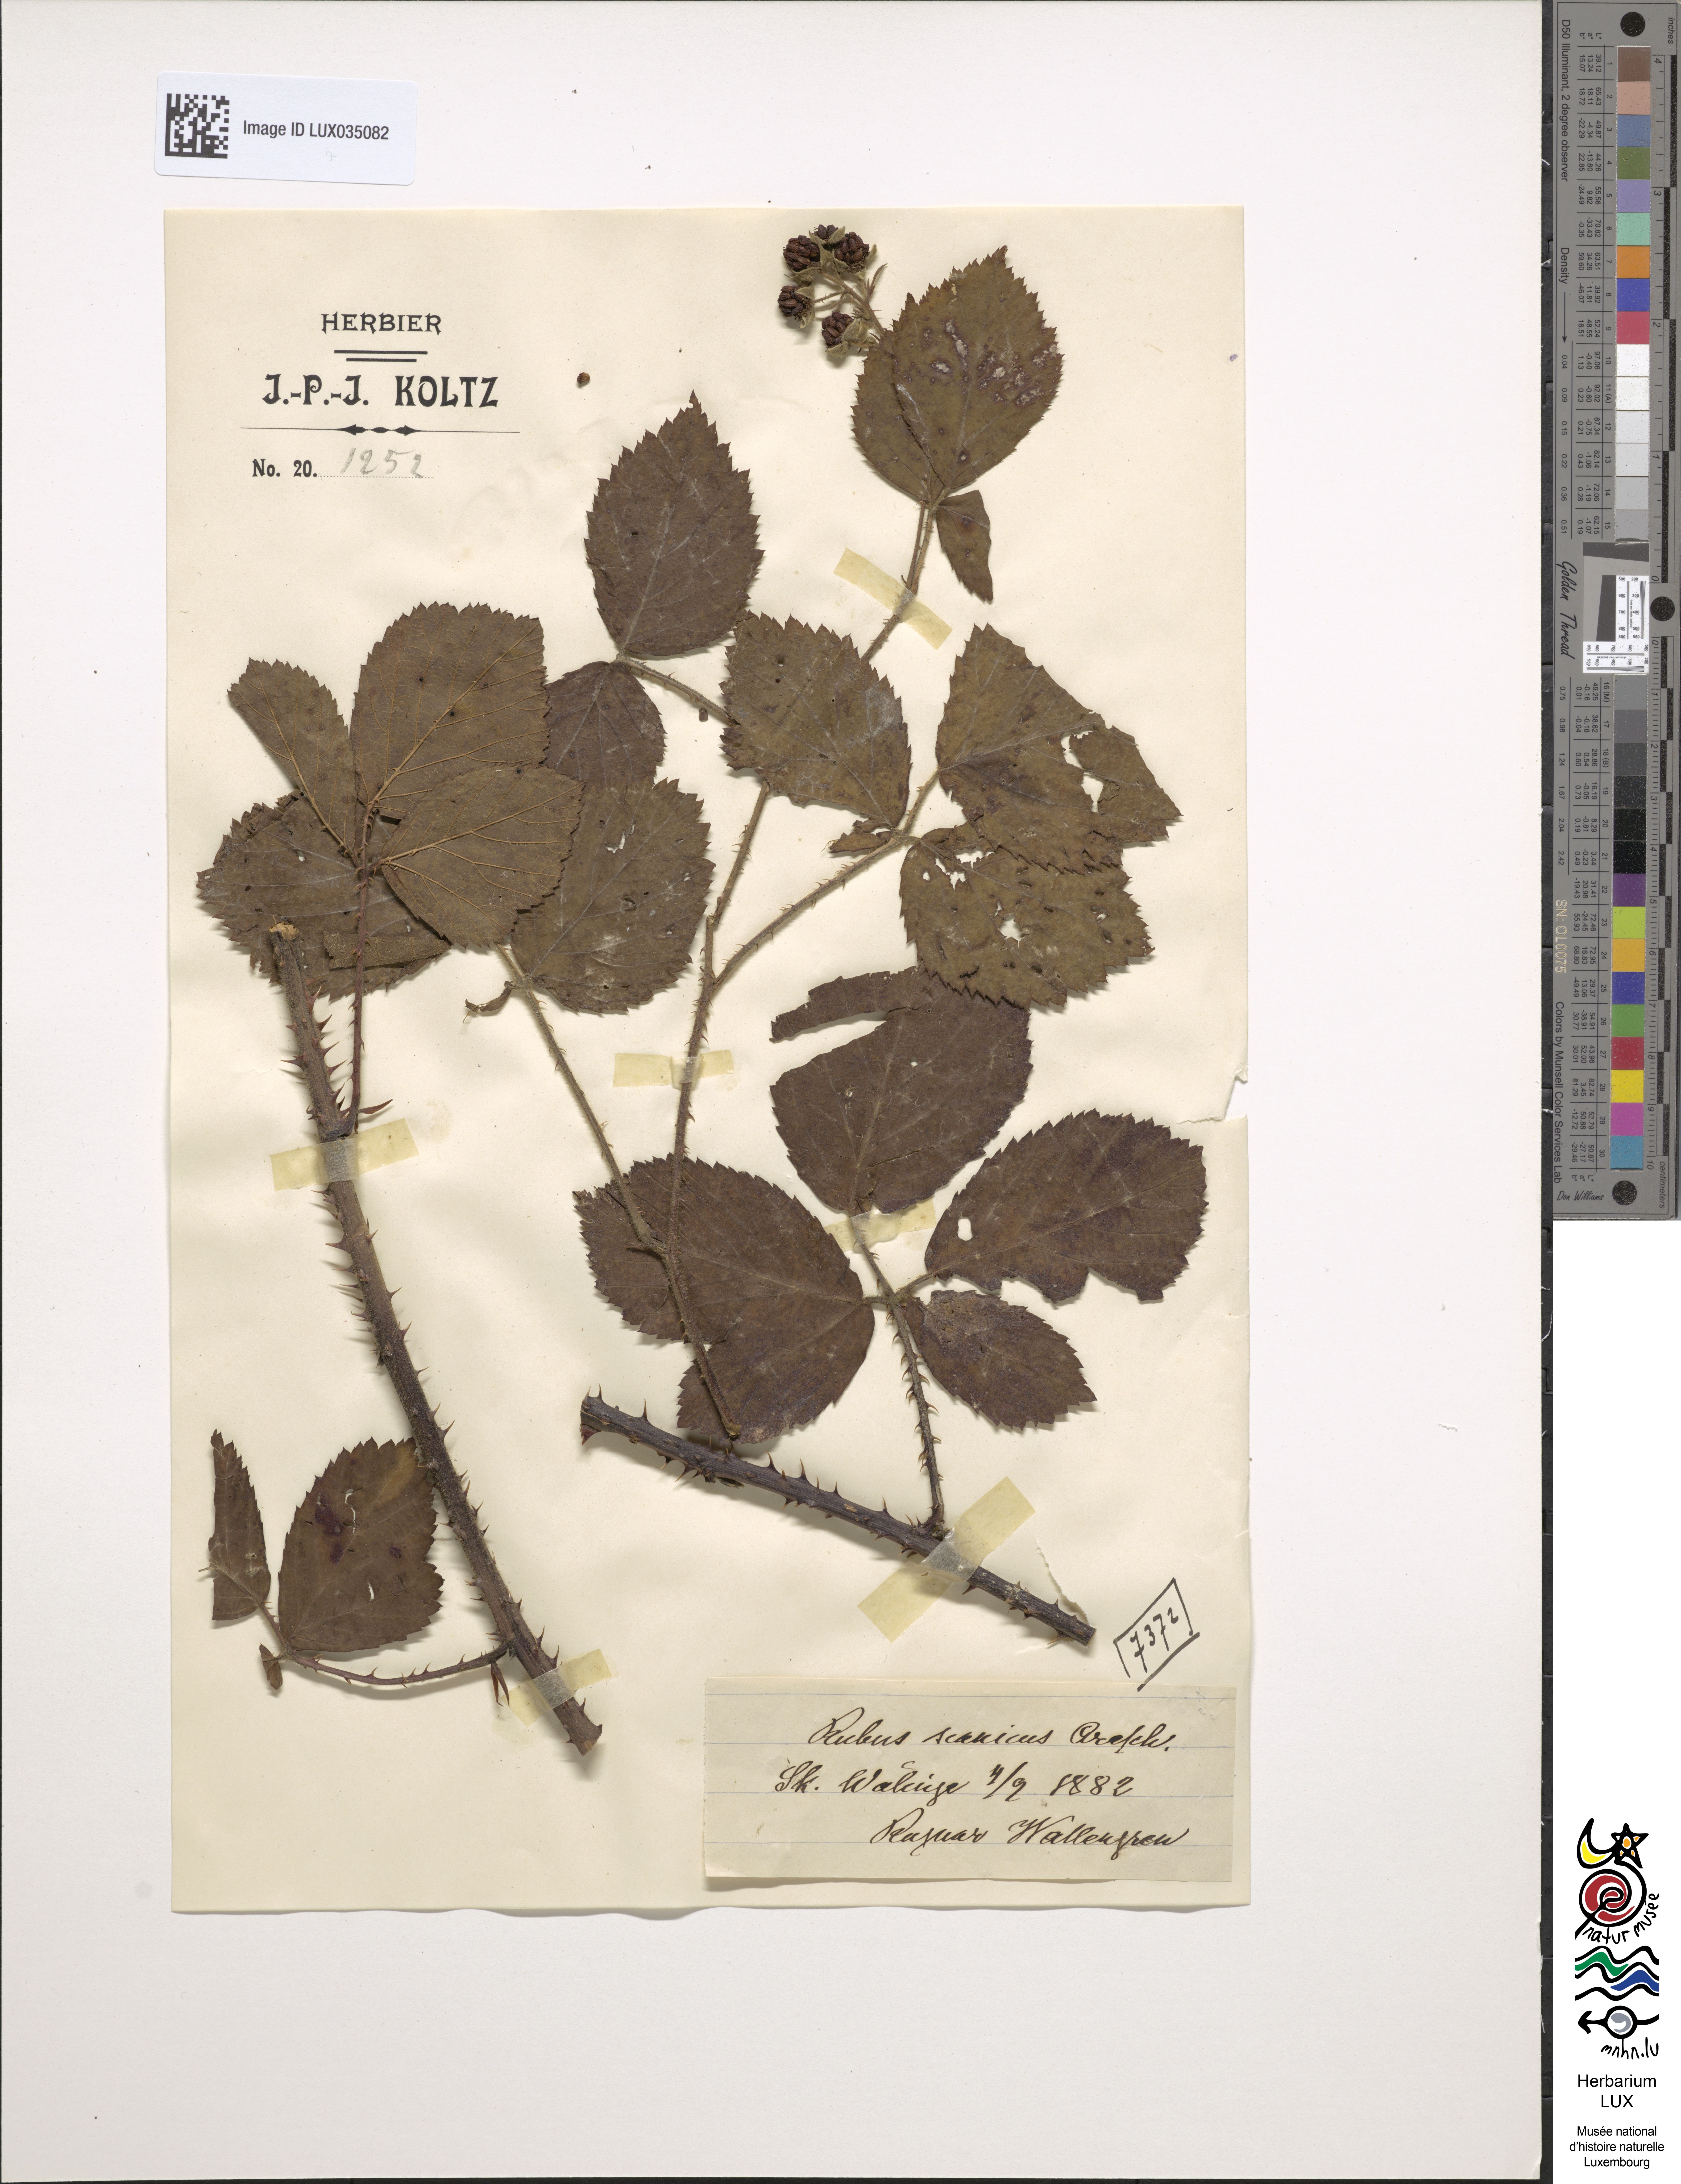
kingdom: Plantae
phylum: Tracheophyta
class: Magnoliopsida
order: Rosales
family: Rosaceae
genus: Rubus
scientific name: Rubus axillaris
